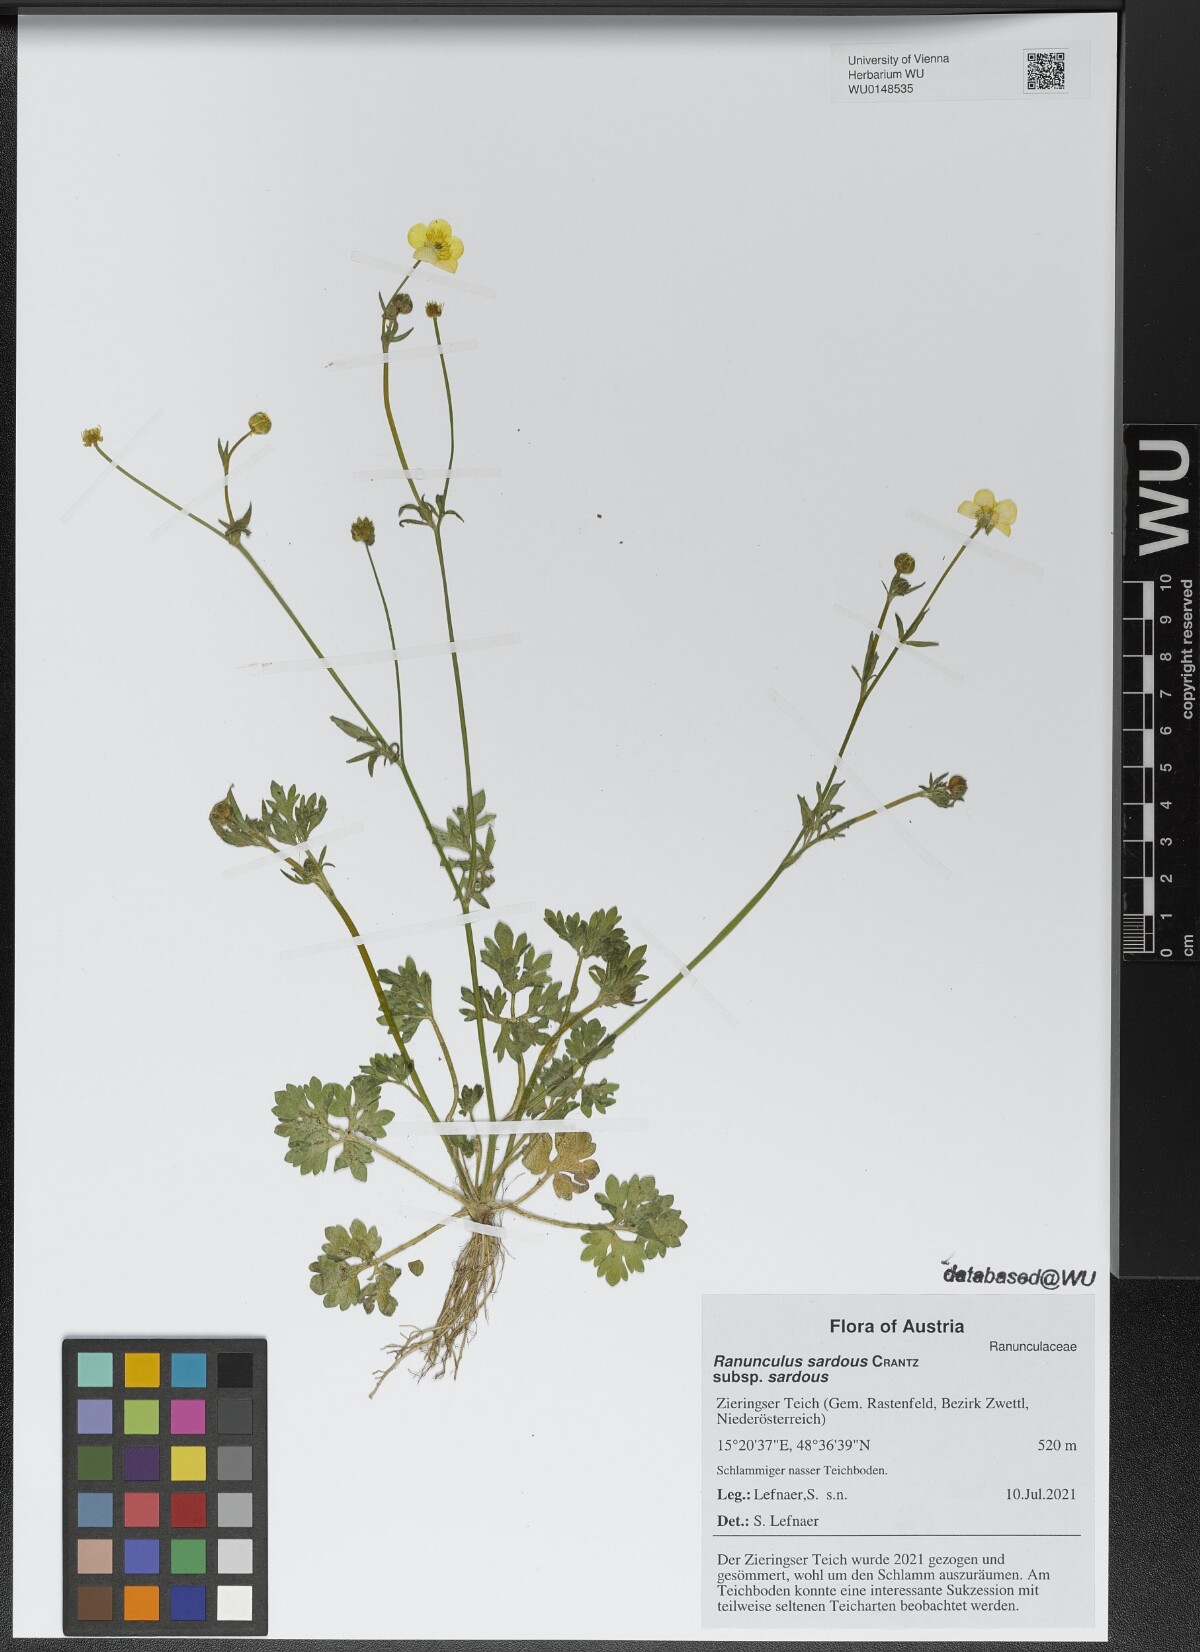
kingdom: Plantae
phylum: Tracheophyta
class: Magnoliopsida
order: Ranunculales
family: Ranunculaceae
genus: Ranunculus
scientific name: Ranunculus sardous
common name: Hairy buttercup
